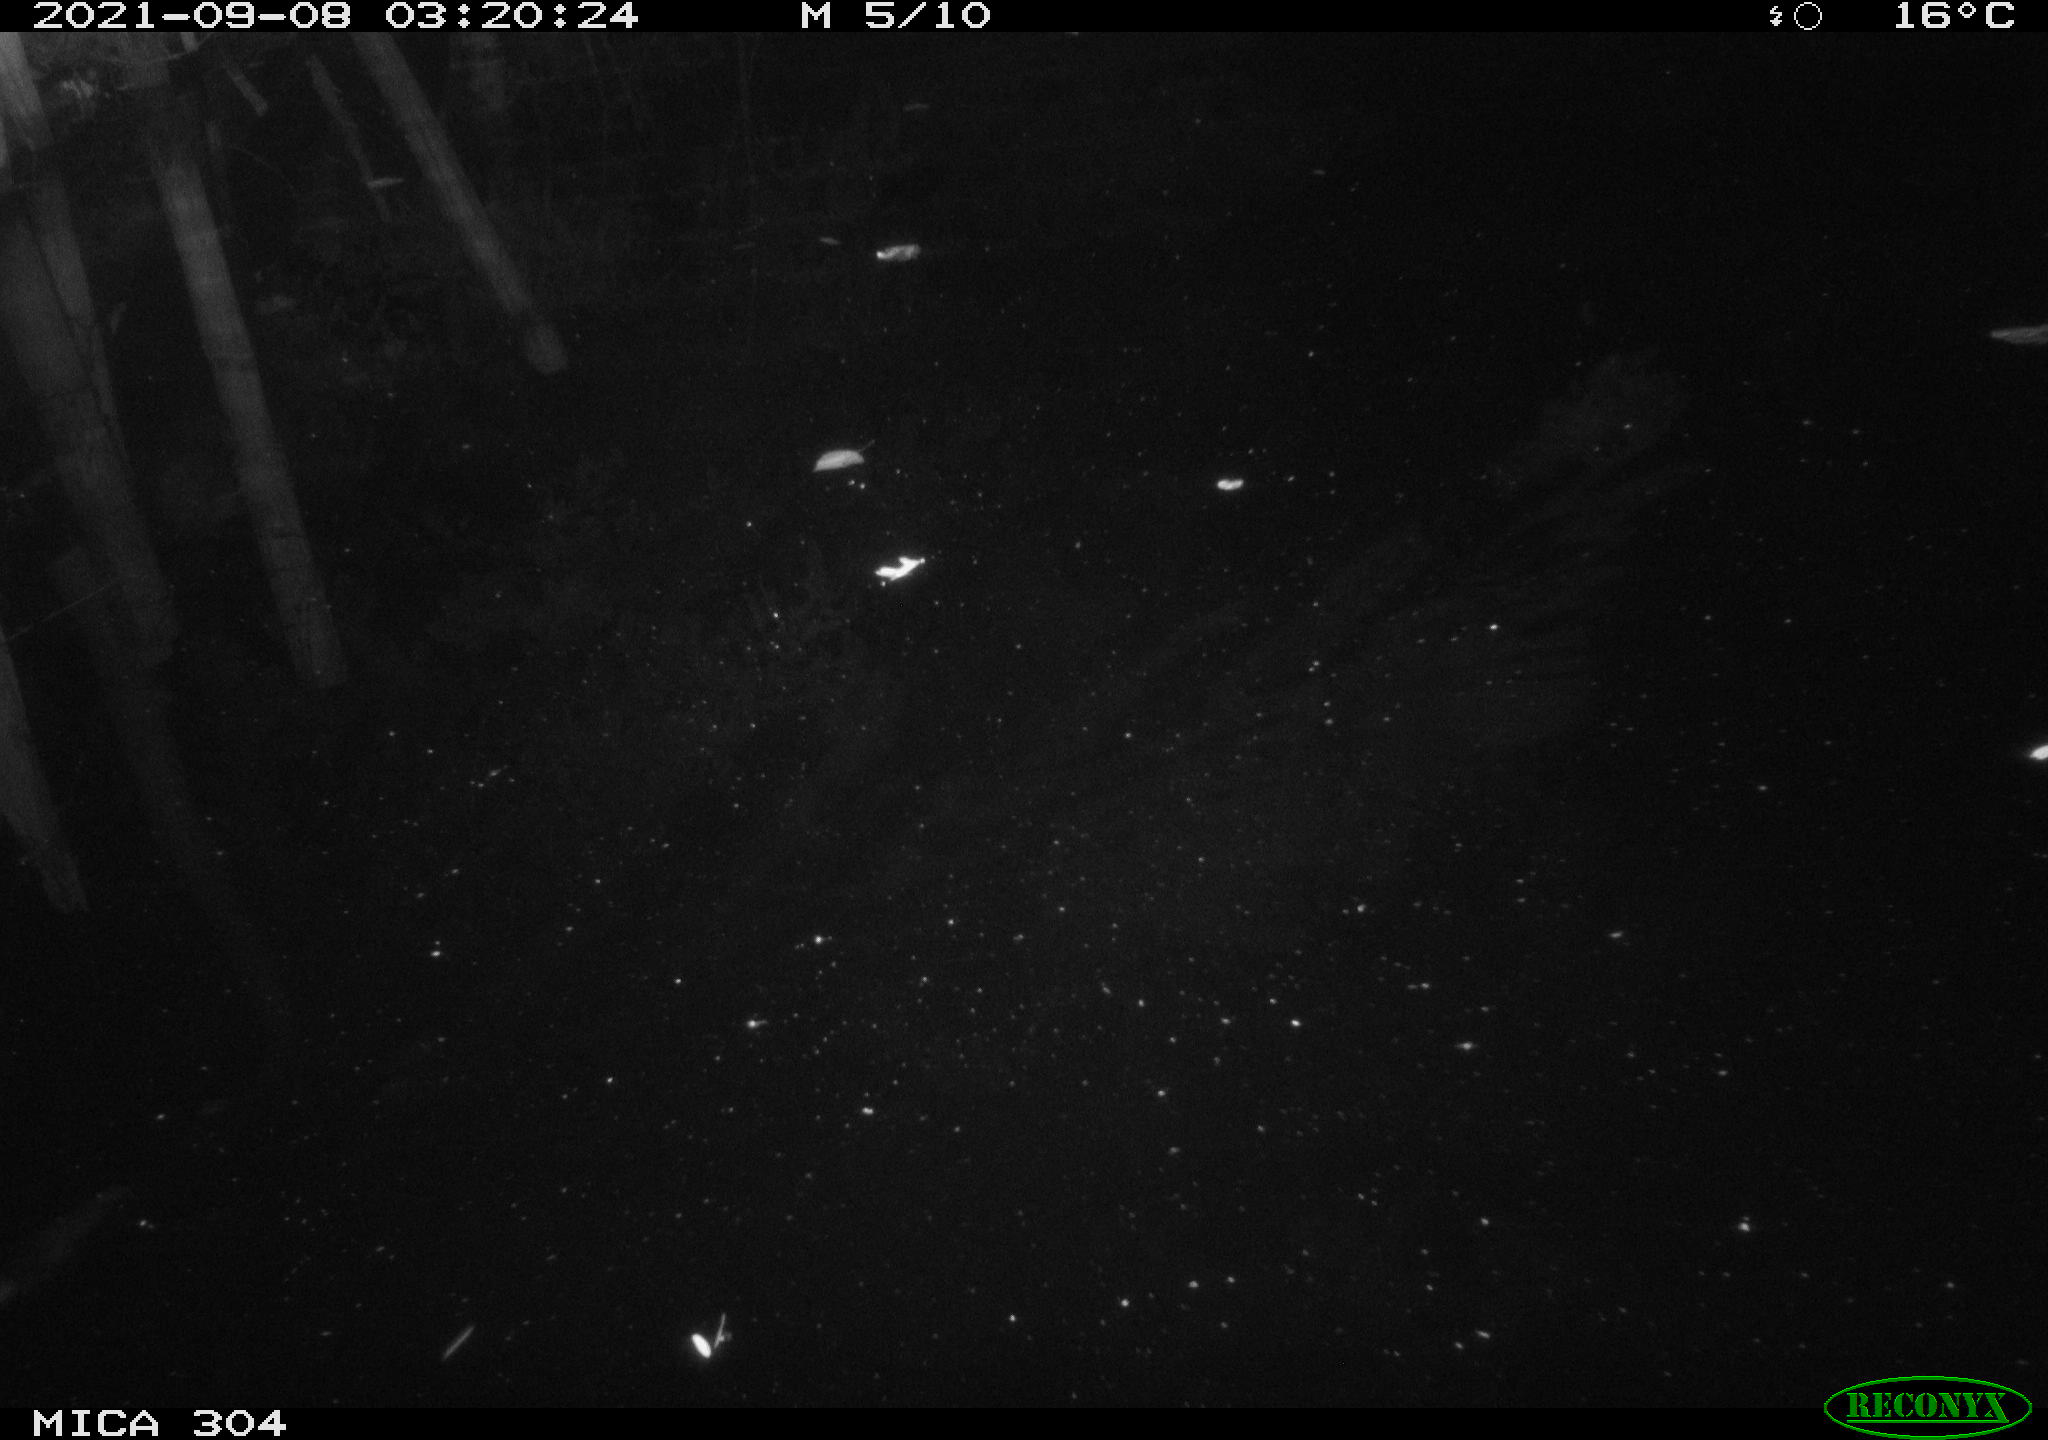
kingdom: Animalia
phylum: Chordata
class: Mammalia
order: Rodentia
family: Muridae
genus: Rattus
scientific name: Rattus norvegicus
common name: Brown rat
